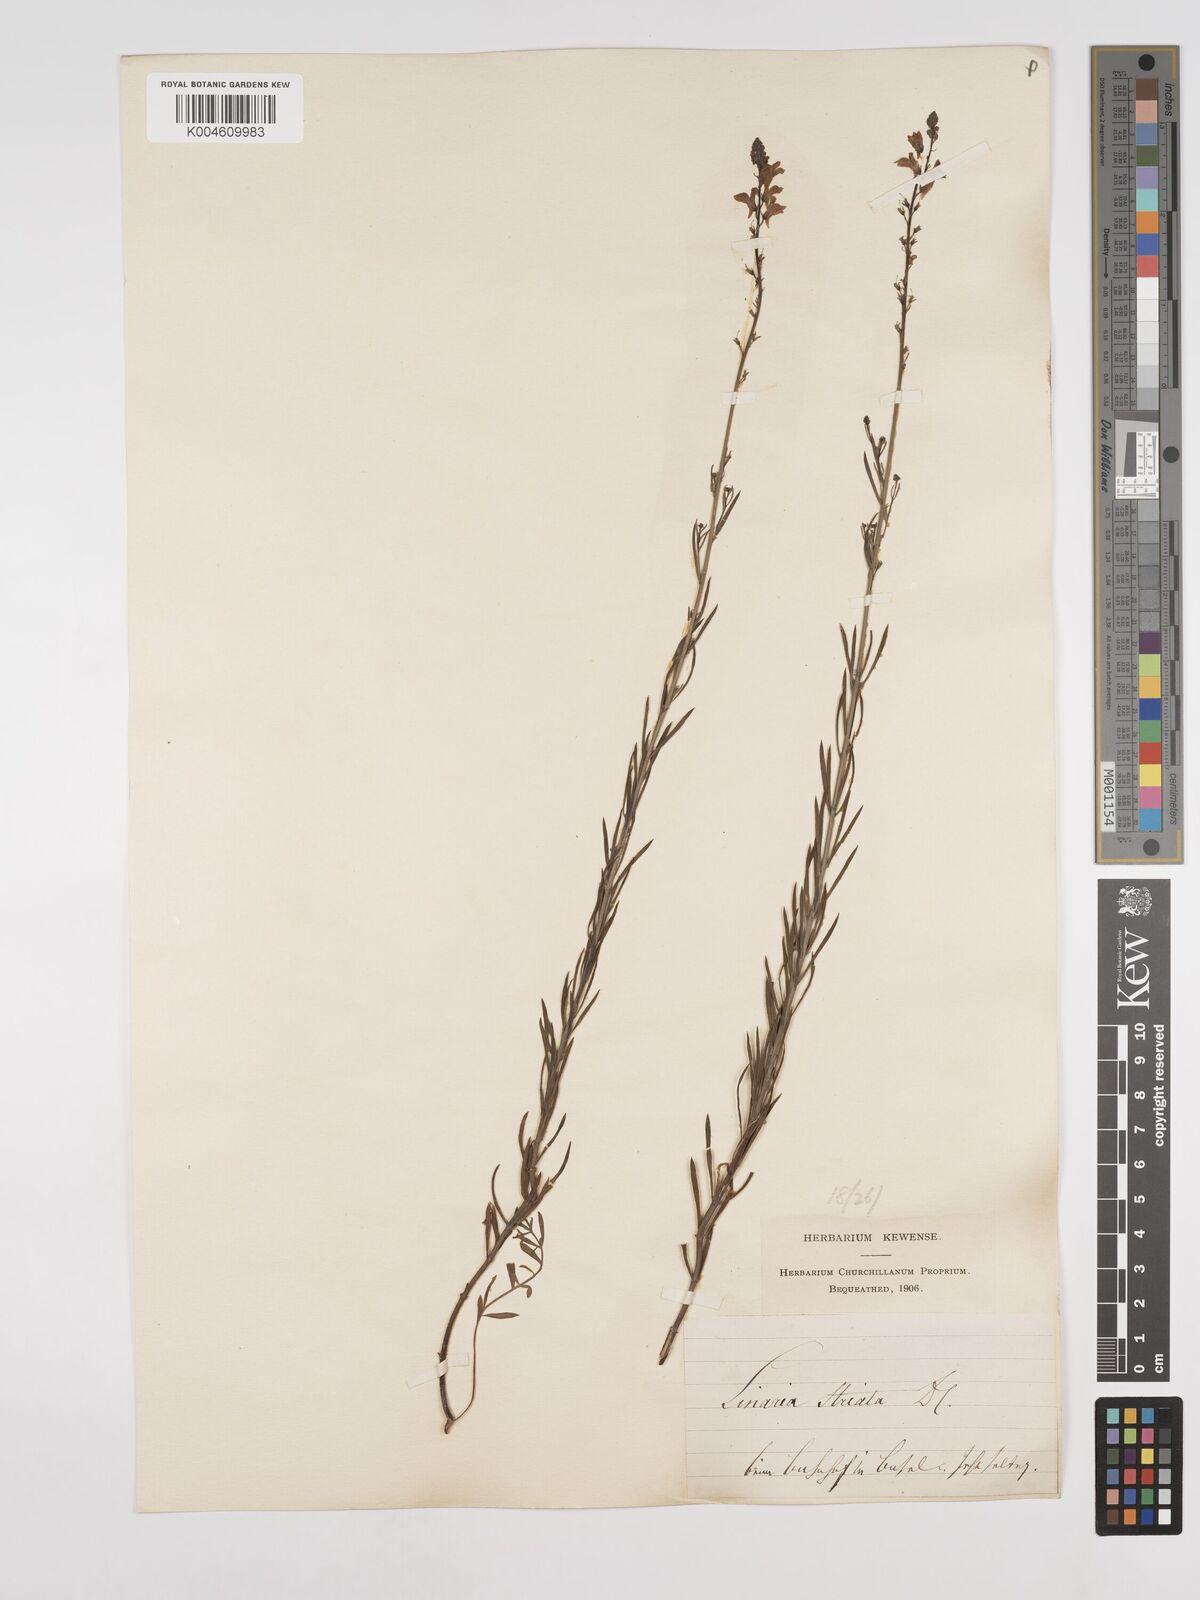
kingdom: Plantae
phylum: Tracheophyta
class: Magnoliopsida
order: Lamiales
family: Plantaginaceae
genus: Linaria
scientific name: Linaria
